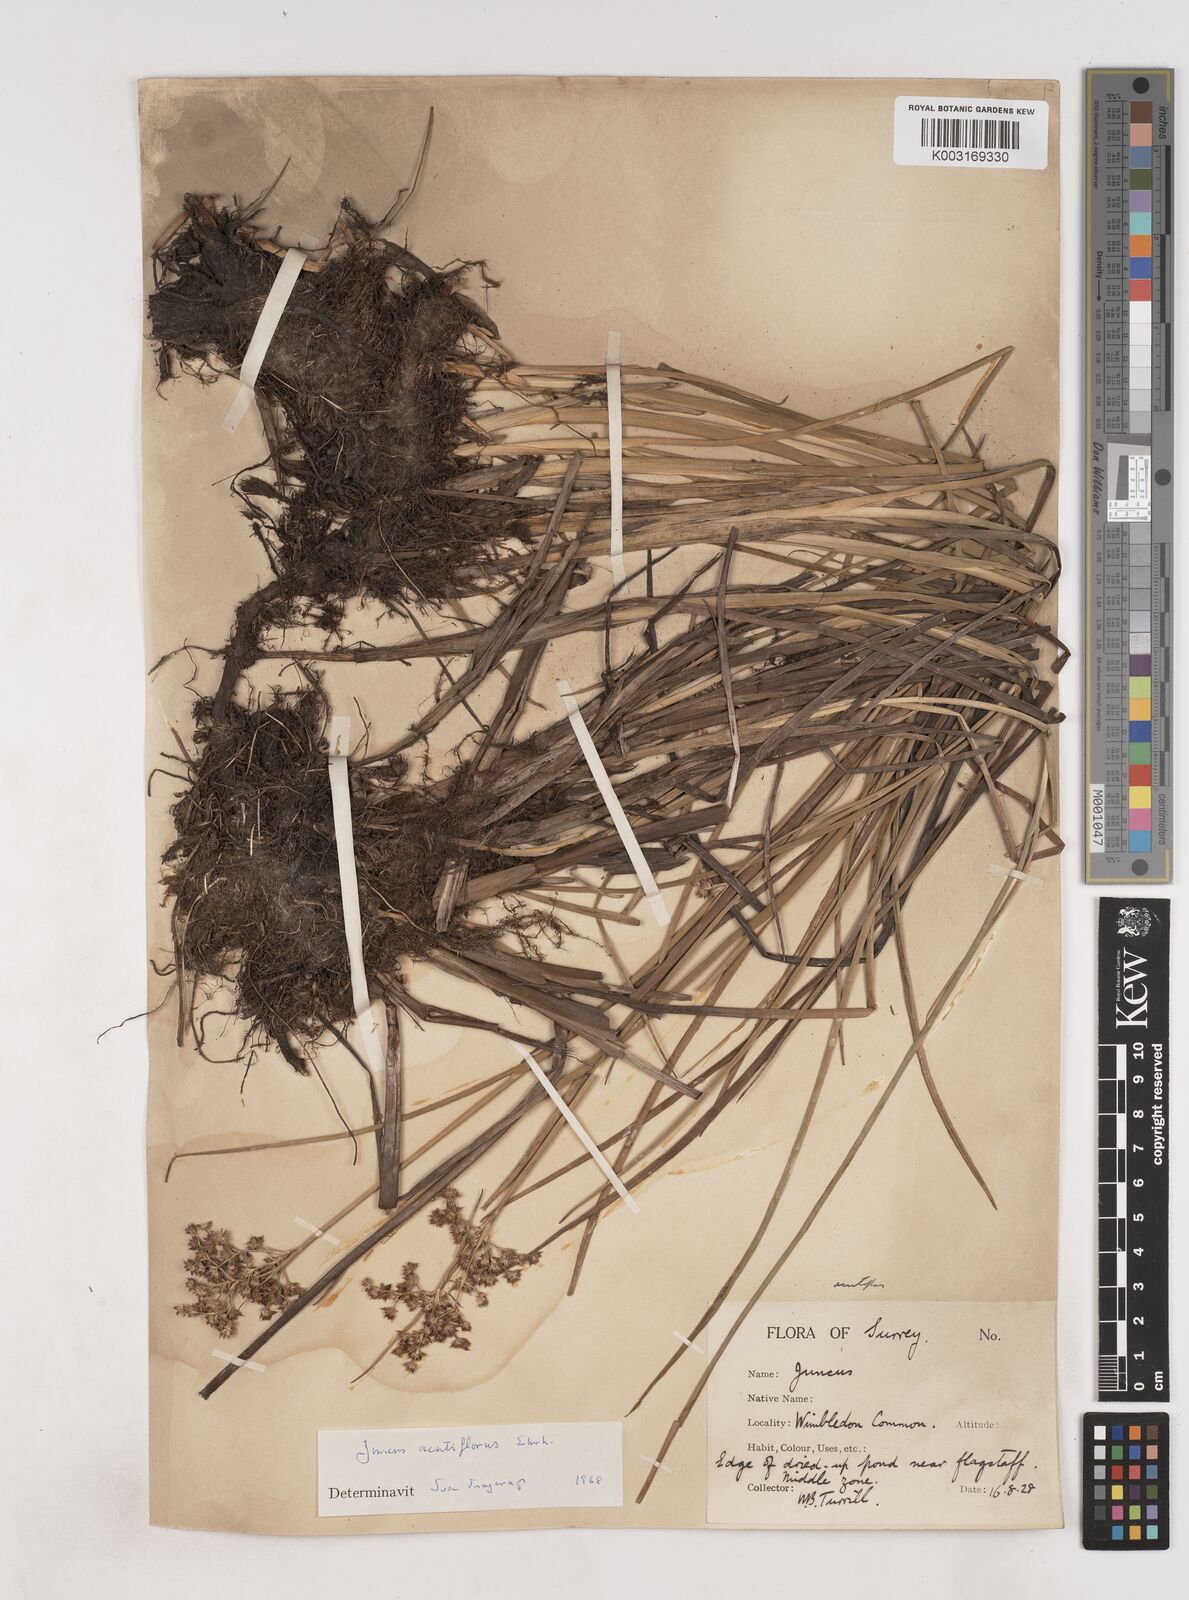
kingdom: Plantae
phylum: Tracheophyta
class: Liliopsida
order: Poales
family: Juncaceae
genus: Juncus
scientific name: Juncus acutiflorus
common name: Sharp-flowered rush
